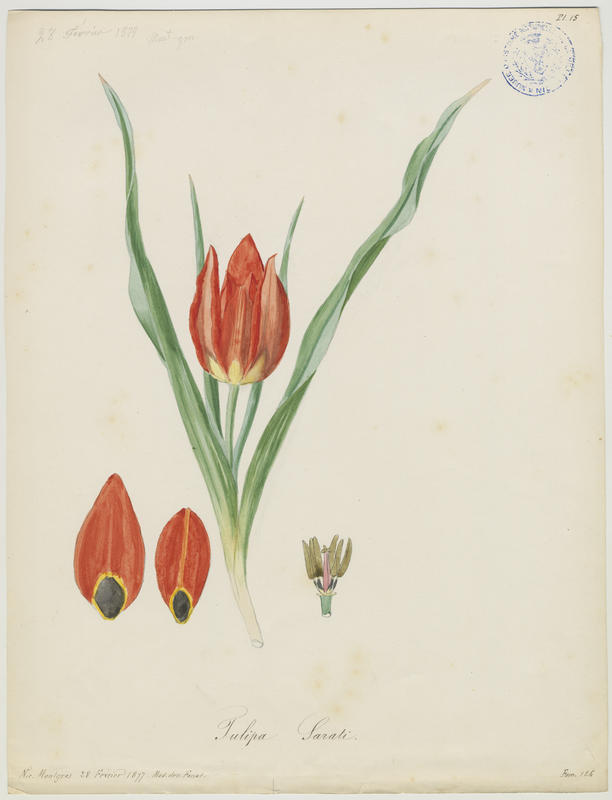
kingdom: Plantae
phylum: Tracheophyta
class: Liliopsida
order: Liliales
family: Liliaceae
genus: Tulipa
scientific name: Tulipa agenensis
